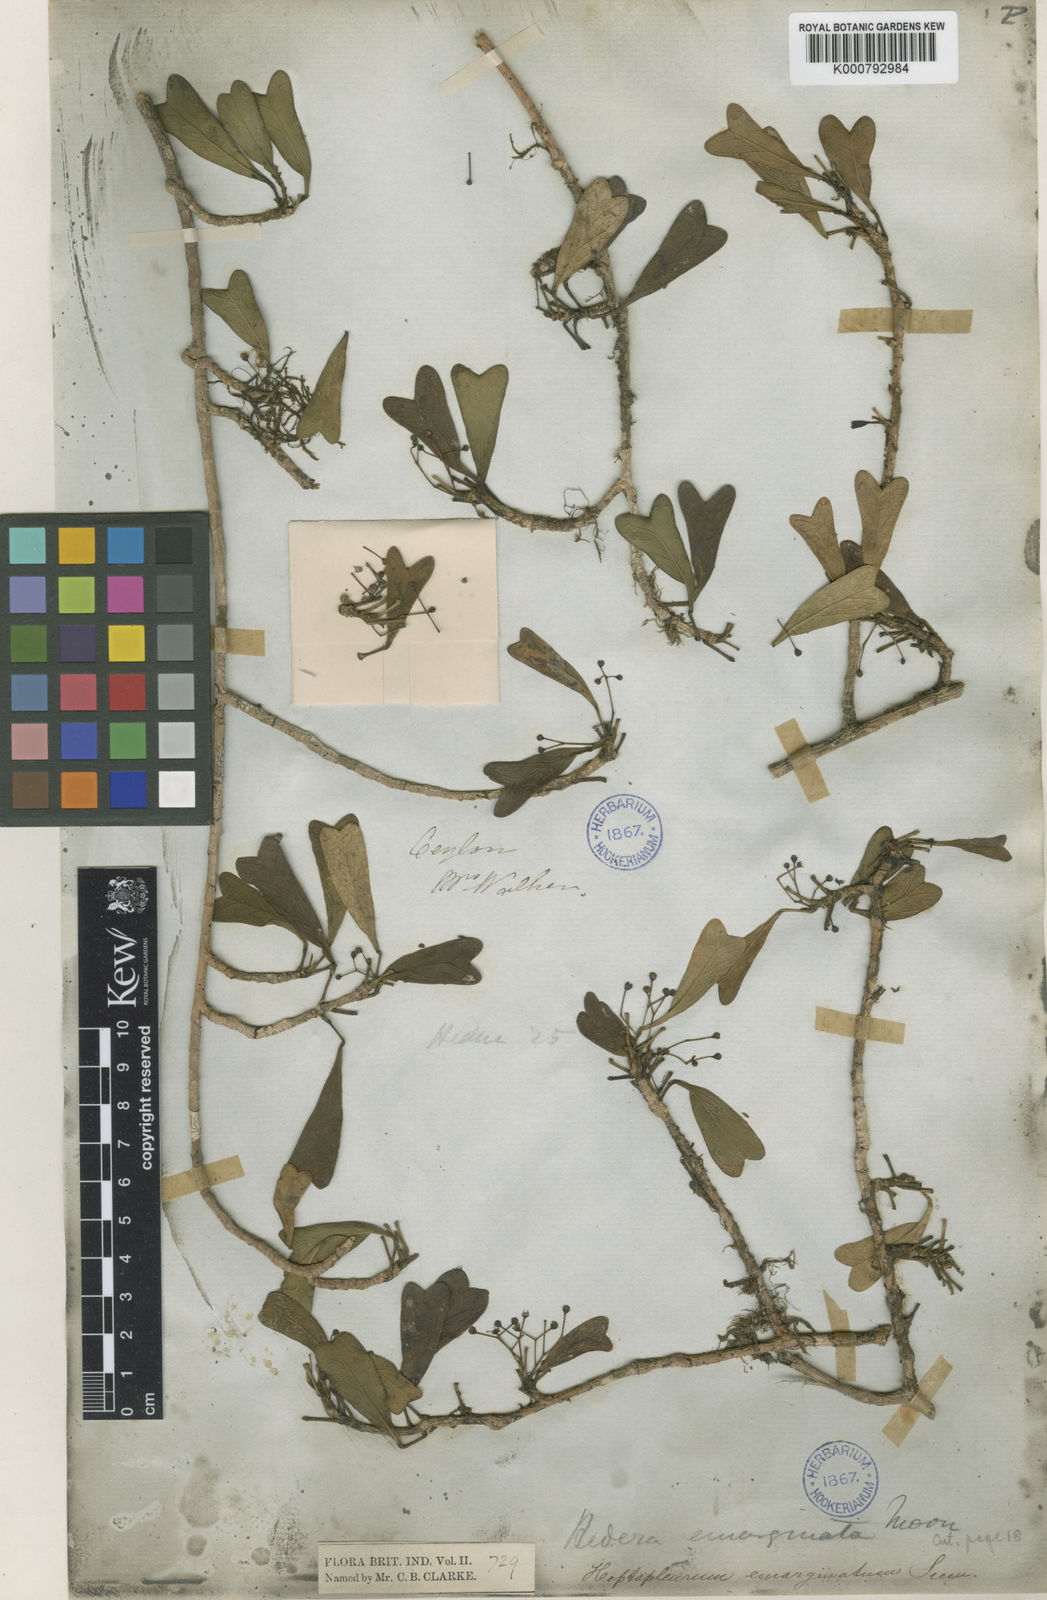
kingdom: Plantae
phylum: Tracheophyta
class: Magnoliopsida
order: Apiales
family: Araliaceae
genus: Heptapleurum
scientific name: Heptapleurum emarginatum
